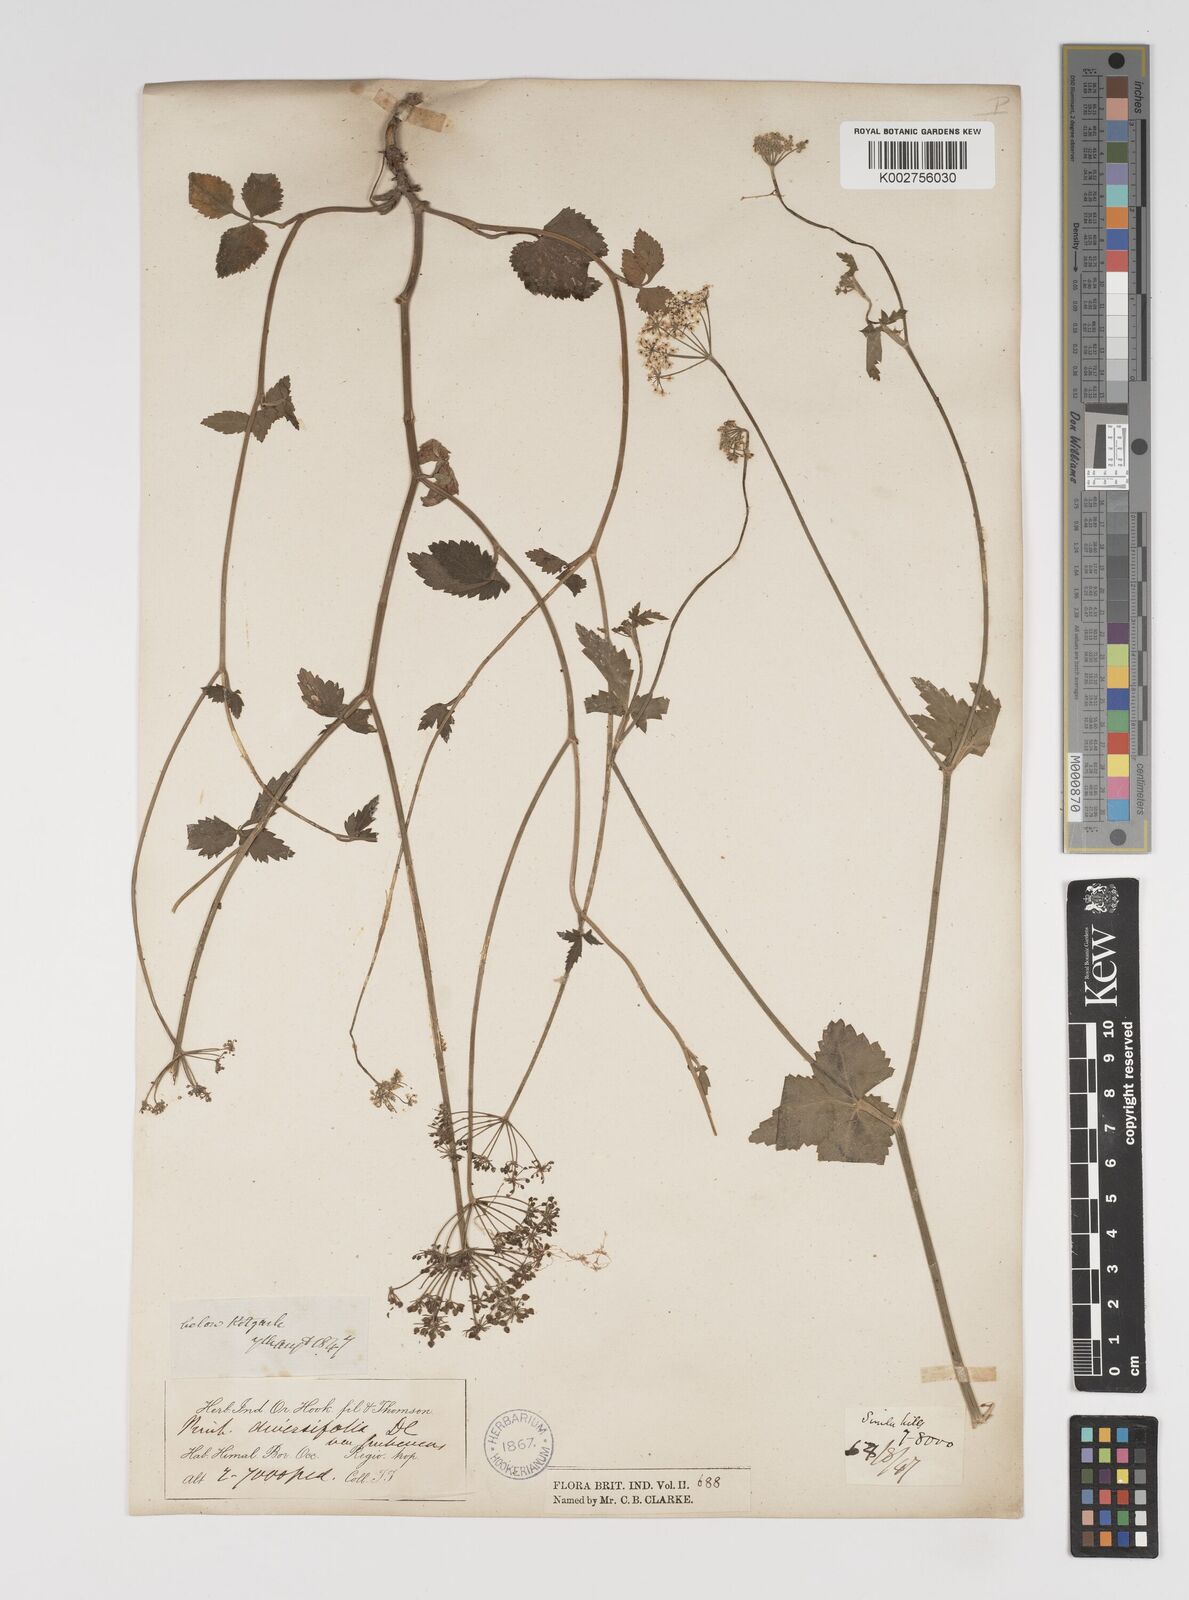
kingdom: Plantae
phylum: Tracheophyta
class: Magnoliopsida
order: Apiales
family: Apiaceae
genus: Pimpinella
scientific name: Pimpinella diversifolia
